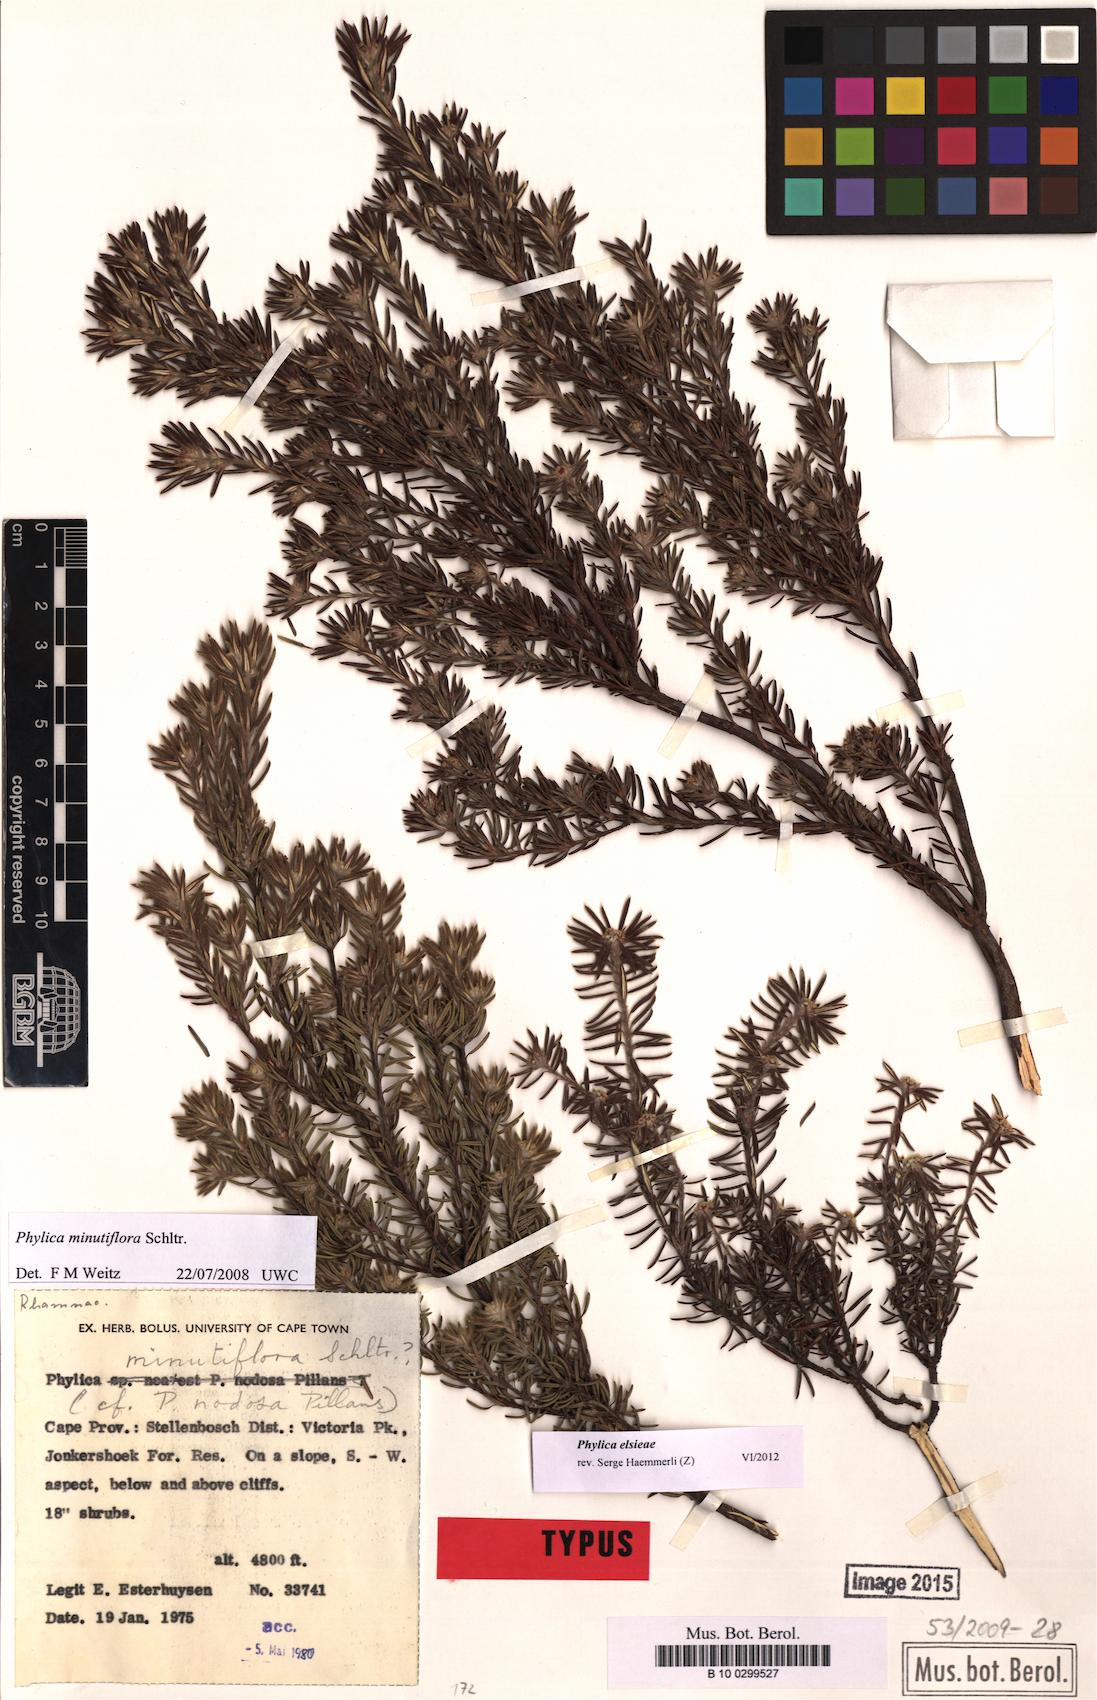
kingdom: Plantae
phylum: Tracheophyta
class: Magnoliopsida
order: Rosales
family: Rhamnaceae
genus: Phylica
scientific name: Phylica elsieae
